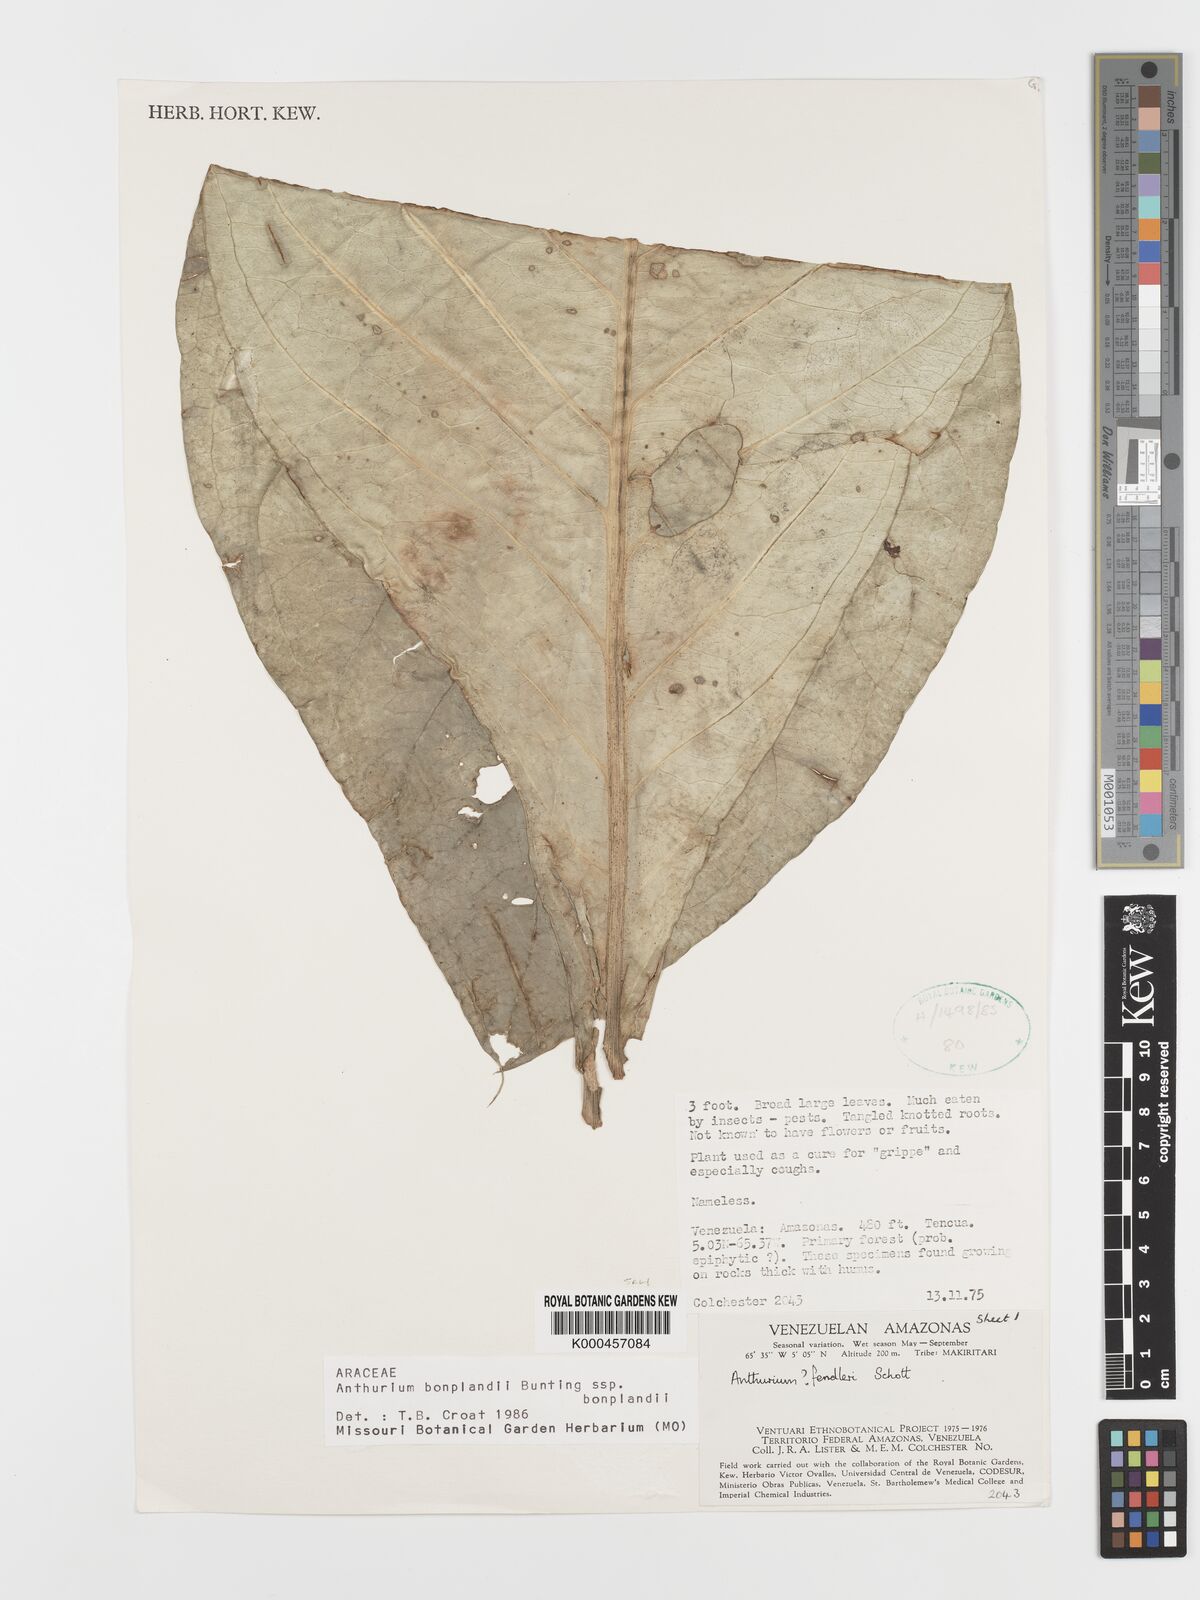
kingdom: Plantae
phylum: Tracheophyta
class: Liliopsida
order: Alismatales
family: Araceae
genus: Anthurium
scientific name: Anthurium bonplandii
